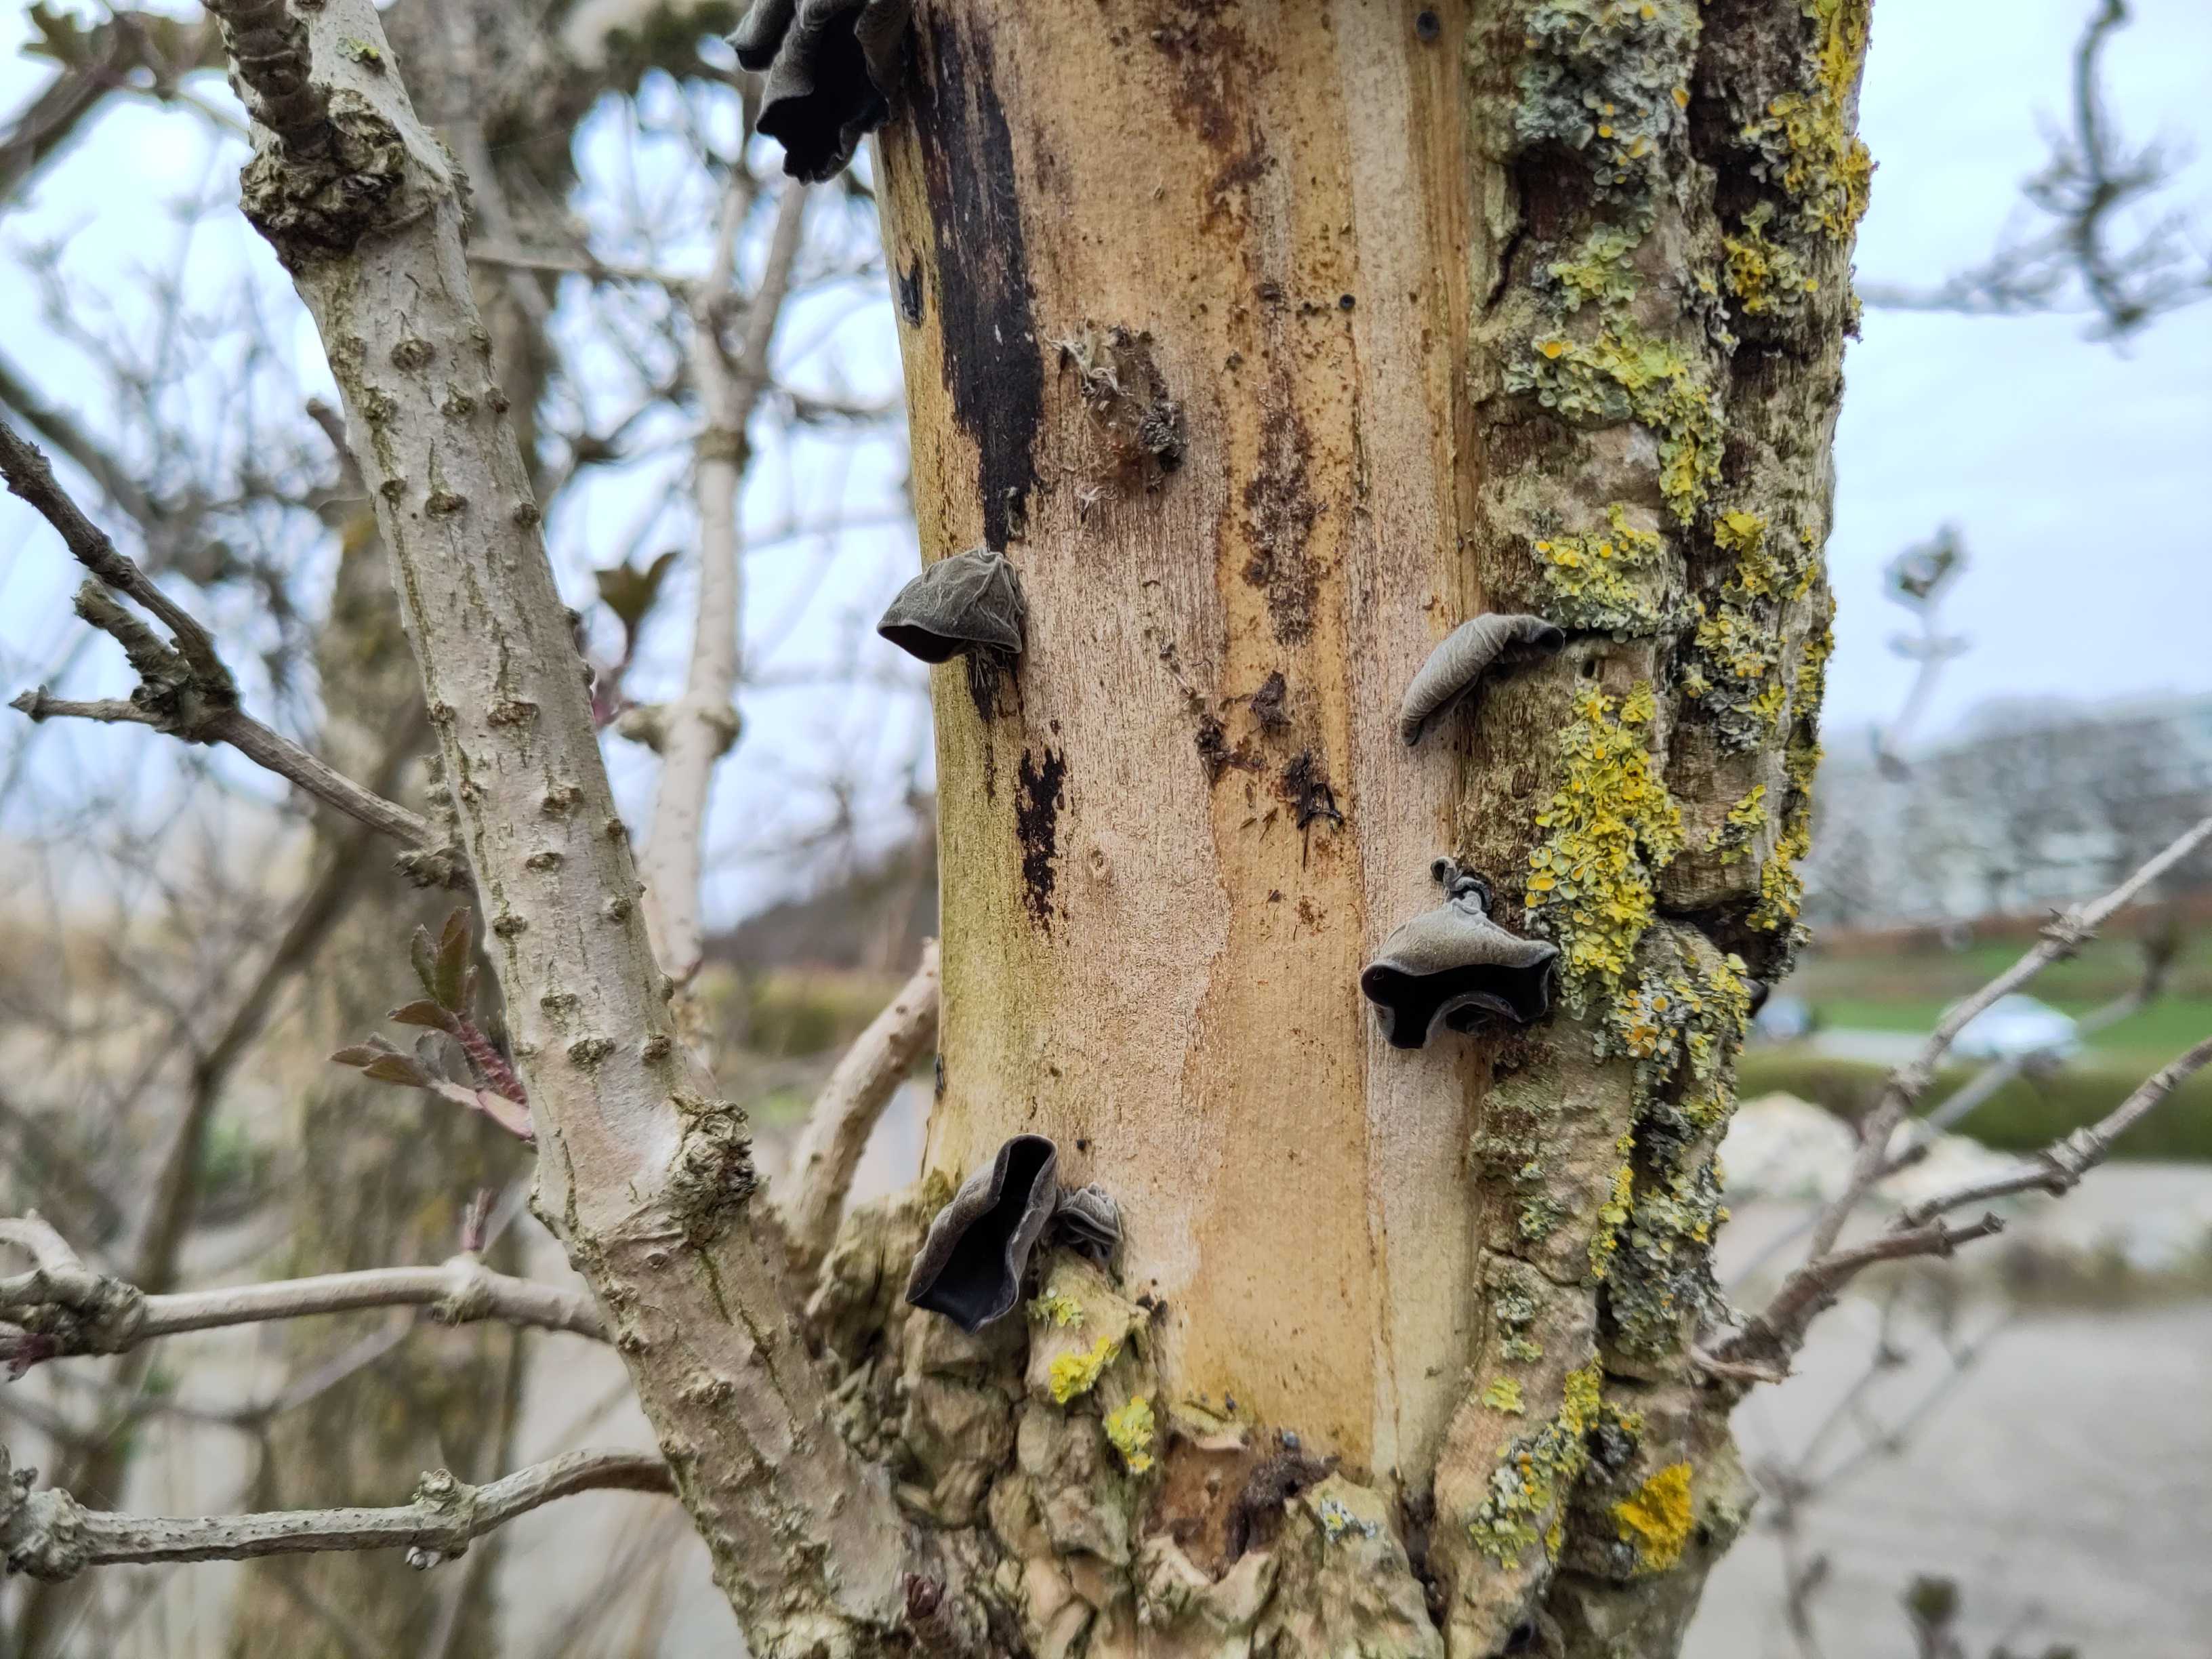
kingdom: Fungi
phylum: Basidiomycota
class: Agaricomycetes
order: Auriculariales
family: Auriculariaceae
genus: Auricularia
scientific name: Auricularia auricula-judae
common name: almindelig judasøre
